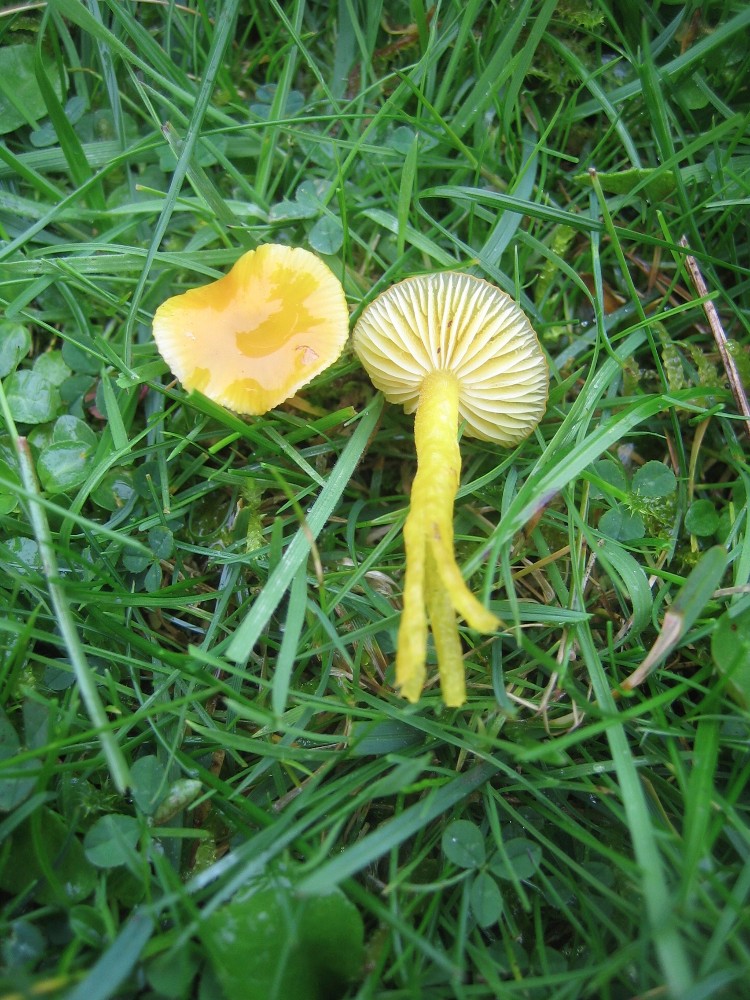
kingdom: Fungi
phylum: Basidiomycota
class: Agaricomycetes
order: Agaricales
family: Hygrophoraceae
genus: Hygrocybe
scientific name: Hygrocybe chlorophana
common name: gul vokshat
